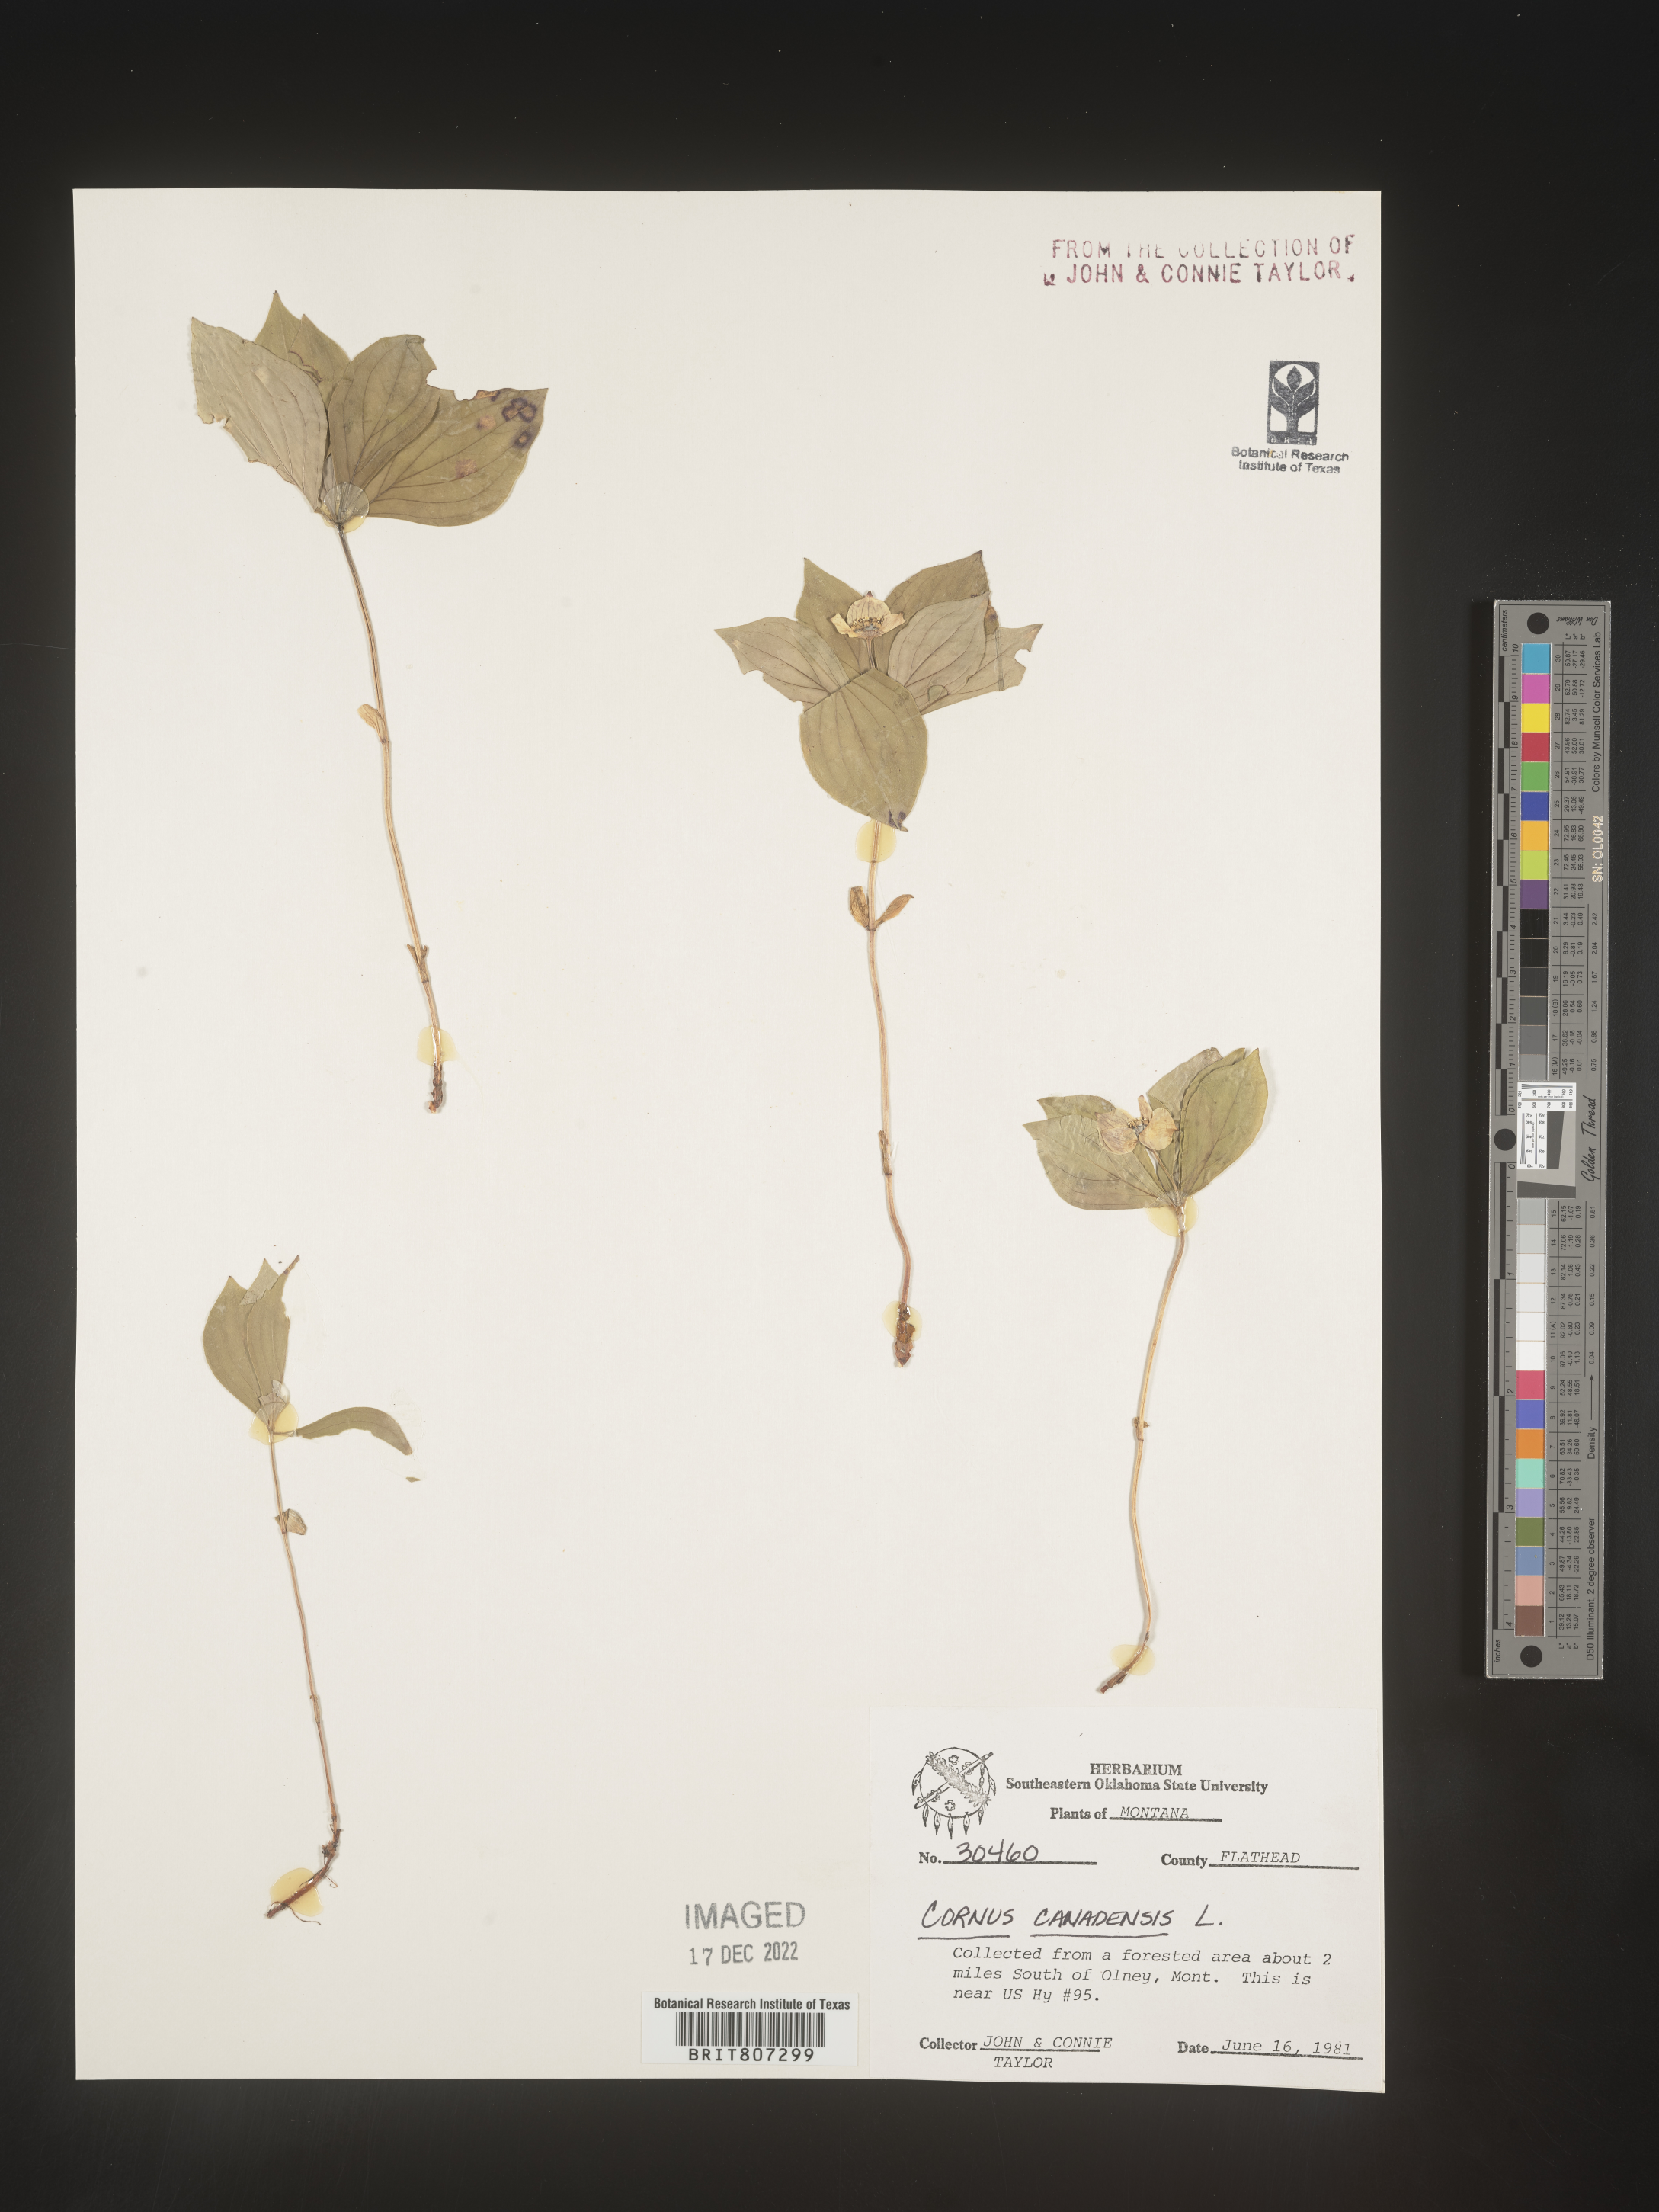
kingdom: Plantae
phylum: Tracheophyta
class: Magnoliopsida
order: Cornales
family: Cornaceae
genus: Cornus
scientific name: Cornus canadensis
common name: Creeping dogwood
